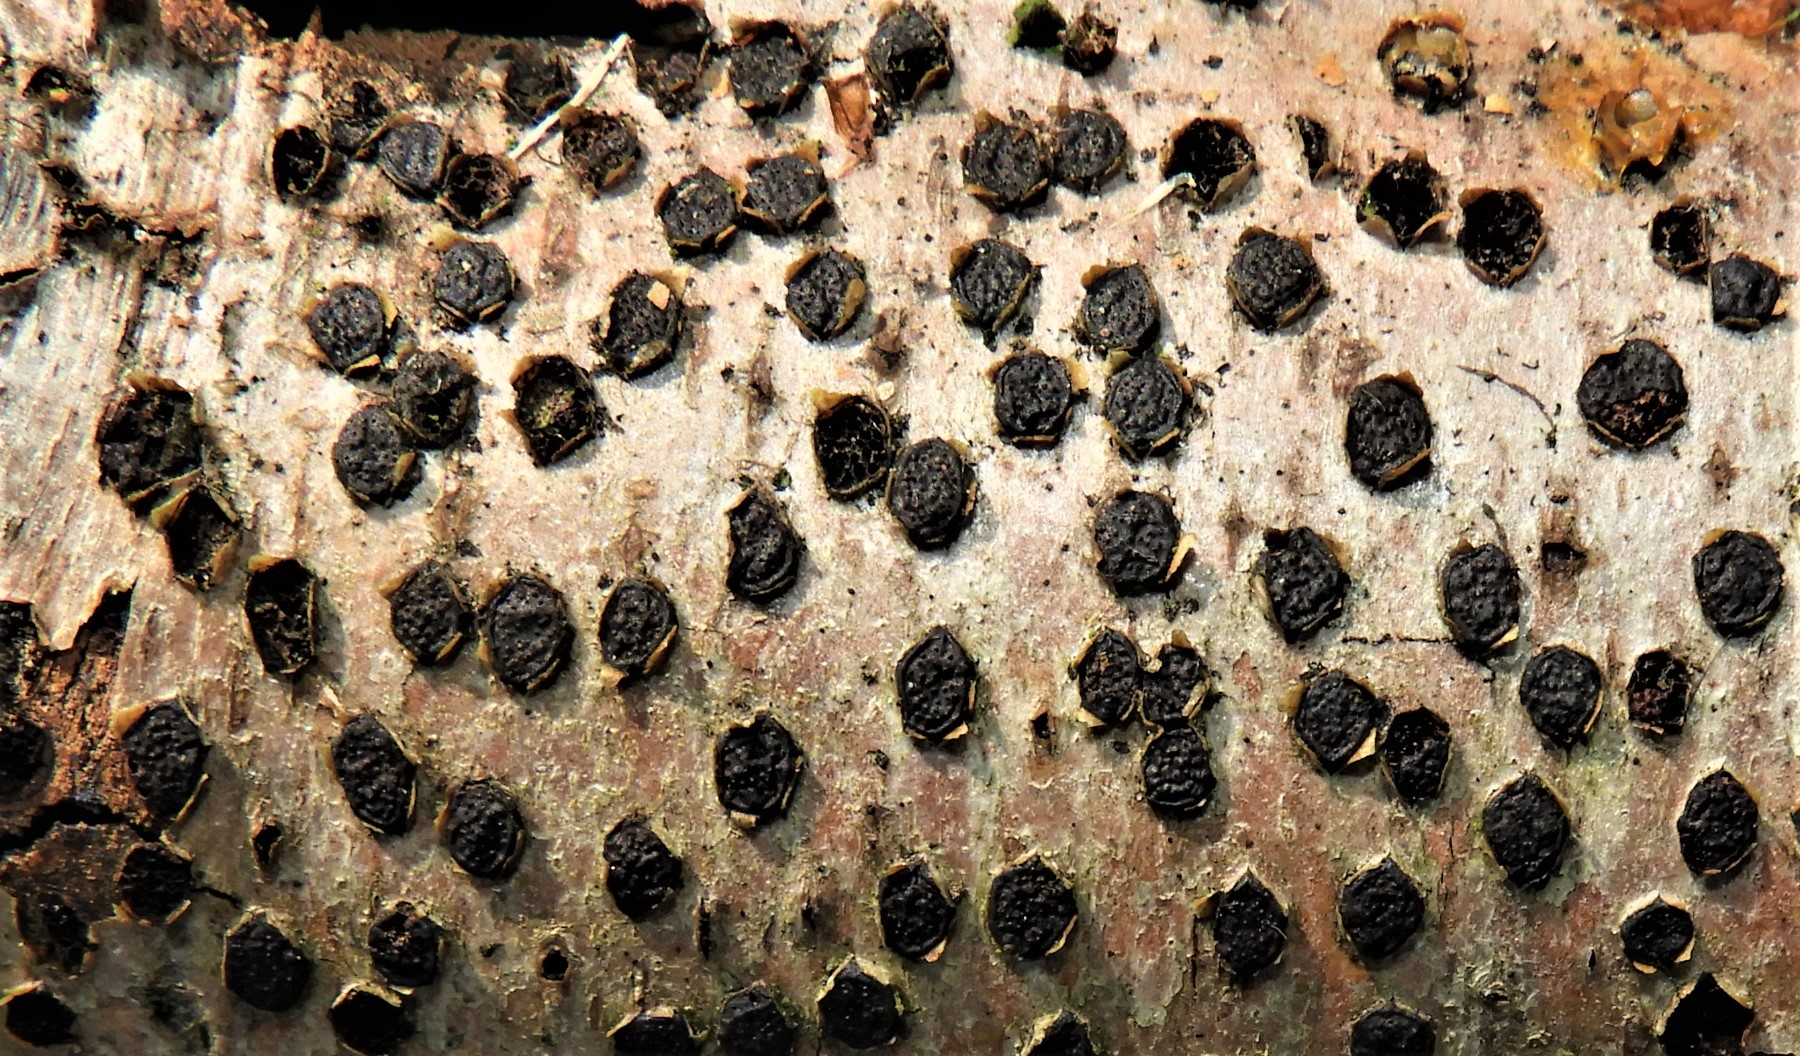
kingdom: Fungi
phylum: Ascomycota
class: Sordariomycetes
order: Xylariales
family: Diatrypaceae
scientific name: Diatrypaceae
